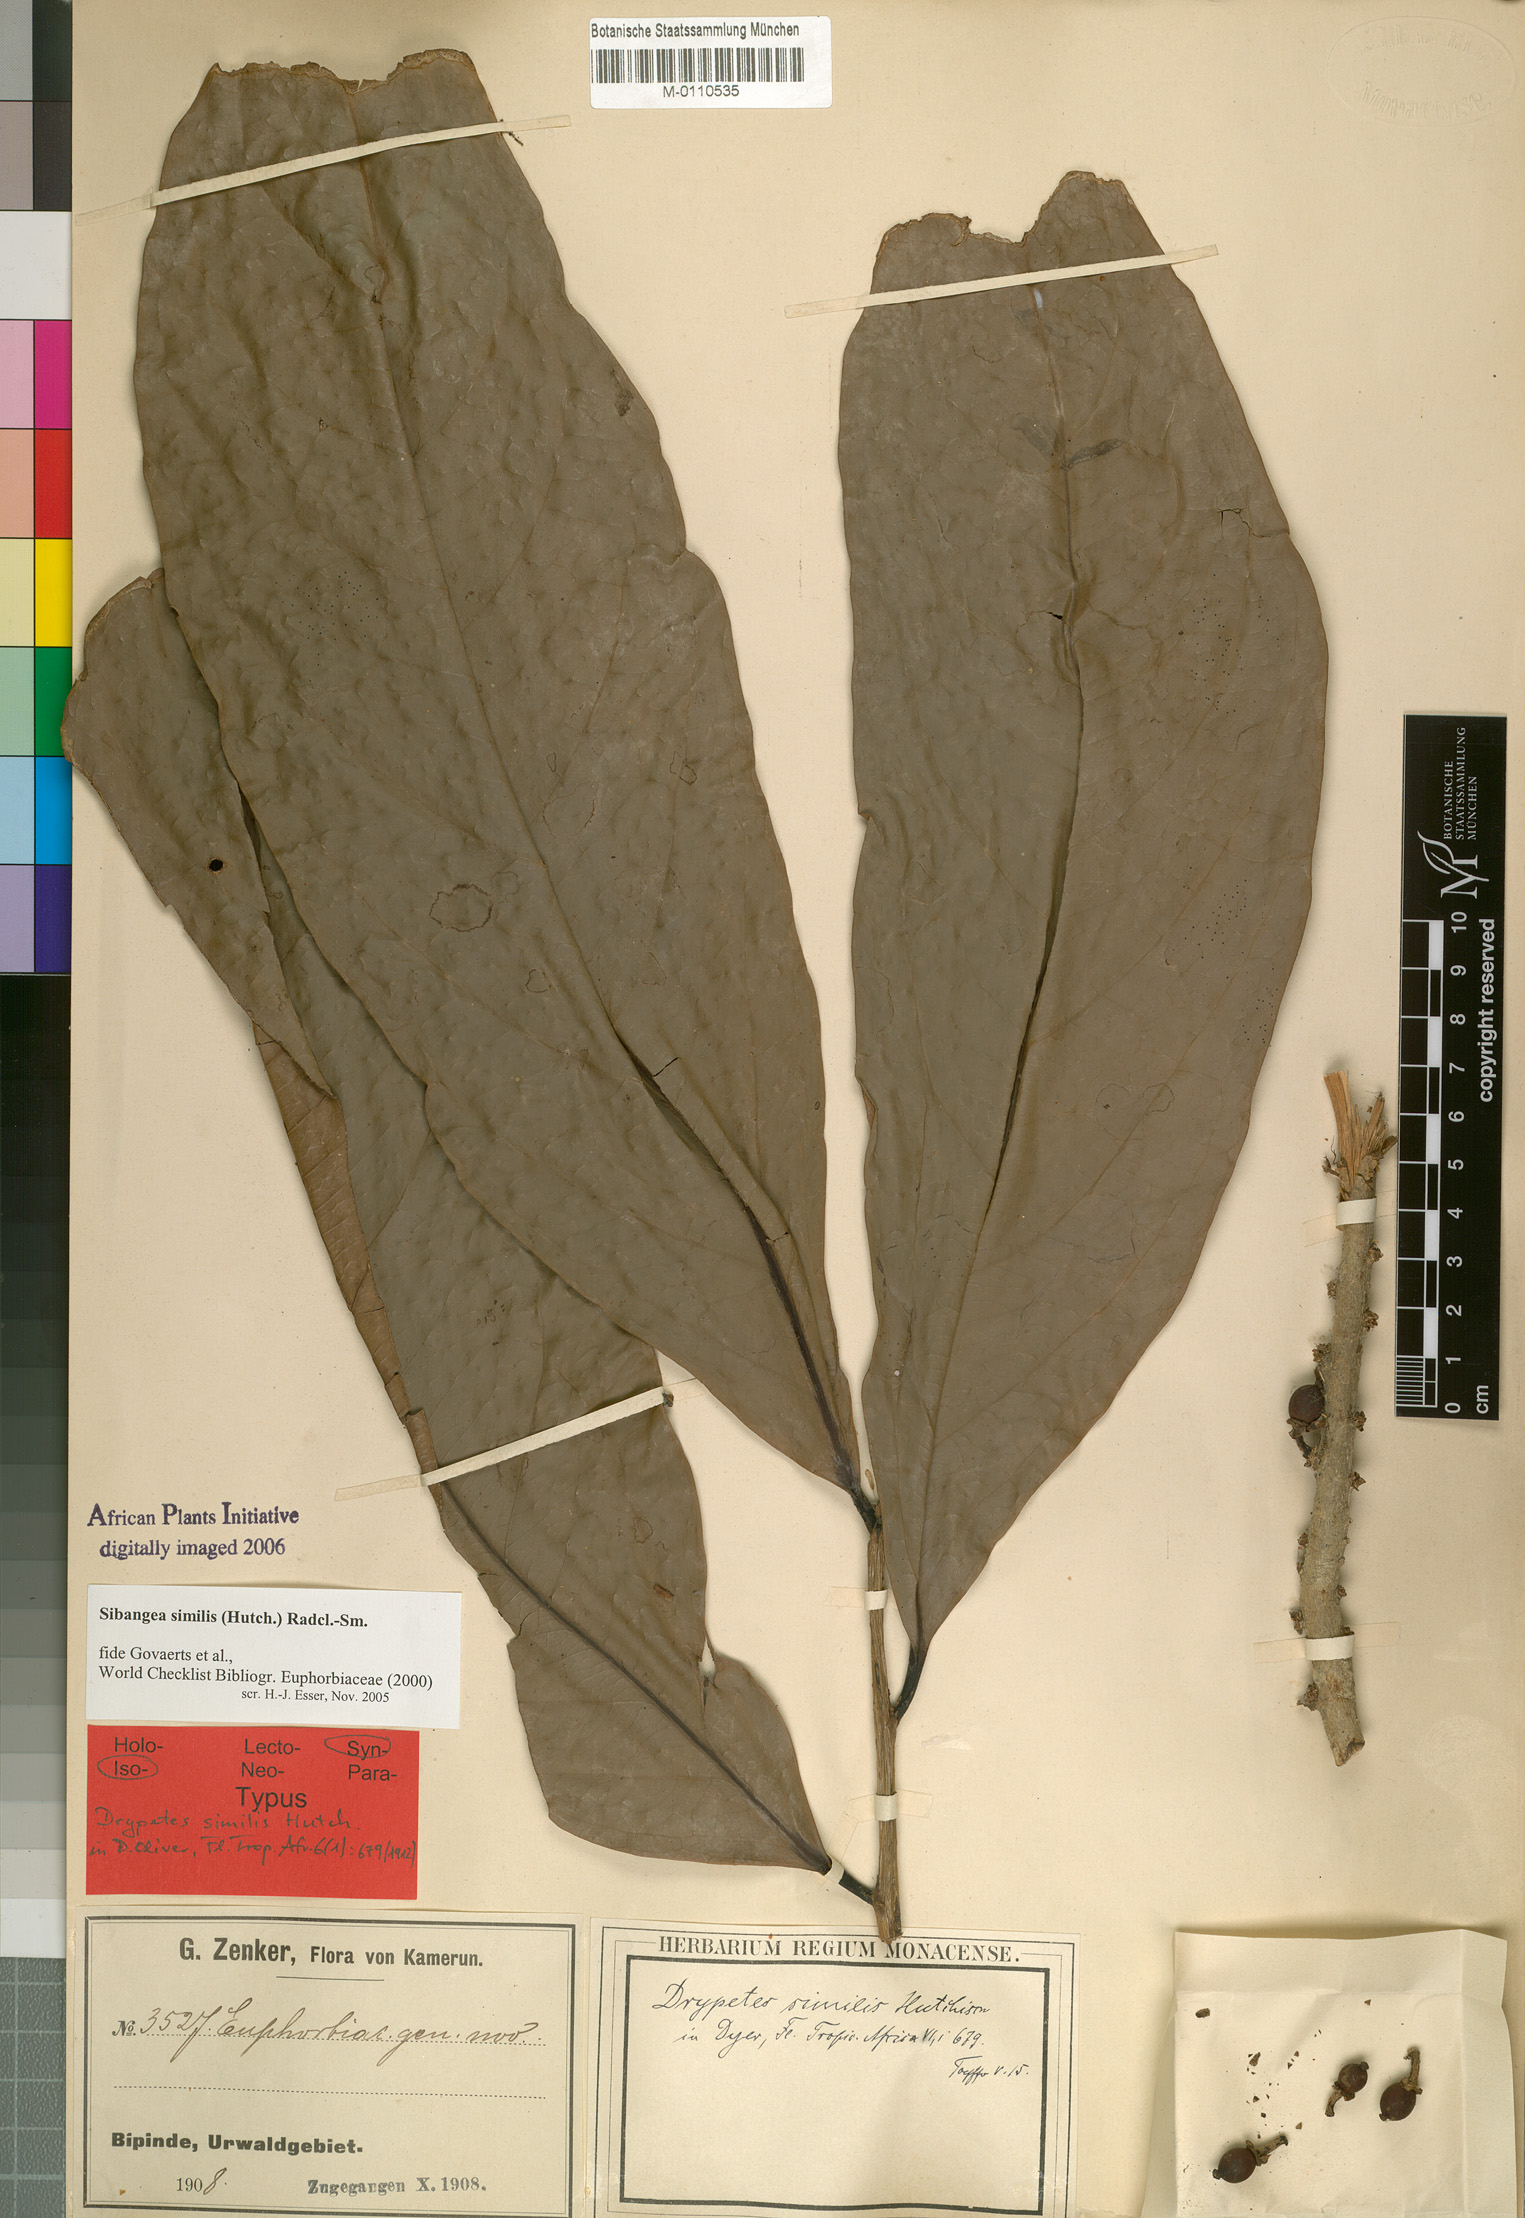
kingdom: Plantae
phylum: Tracheophyta
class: Magnoliopsida
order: Malpighiales
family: Putranjivaceae
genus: Drypetes
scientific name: Drypetes similis
